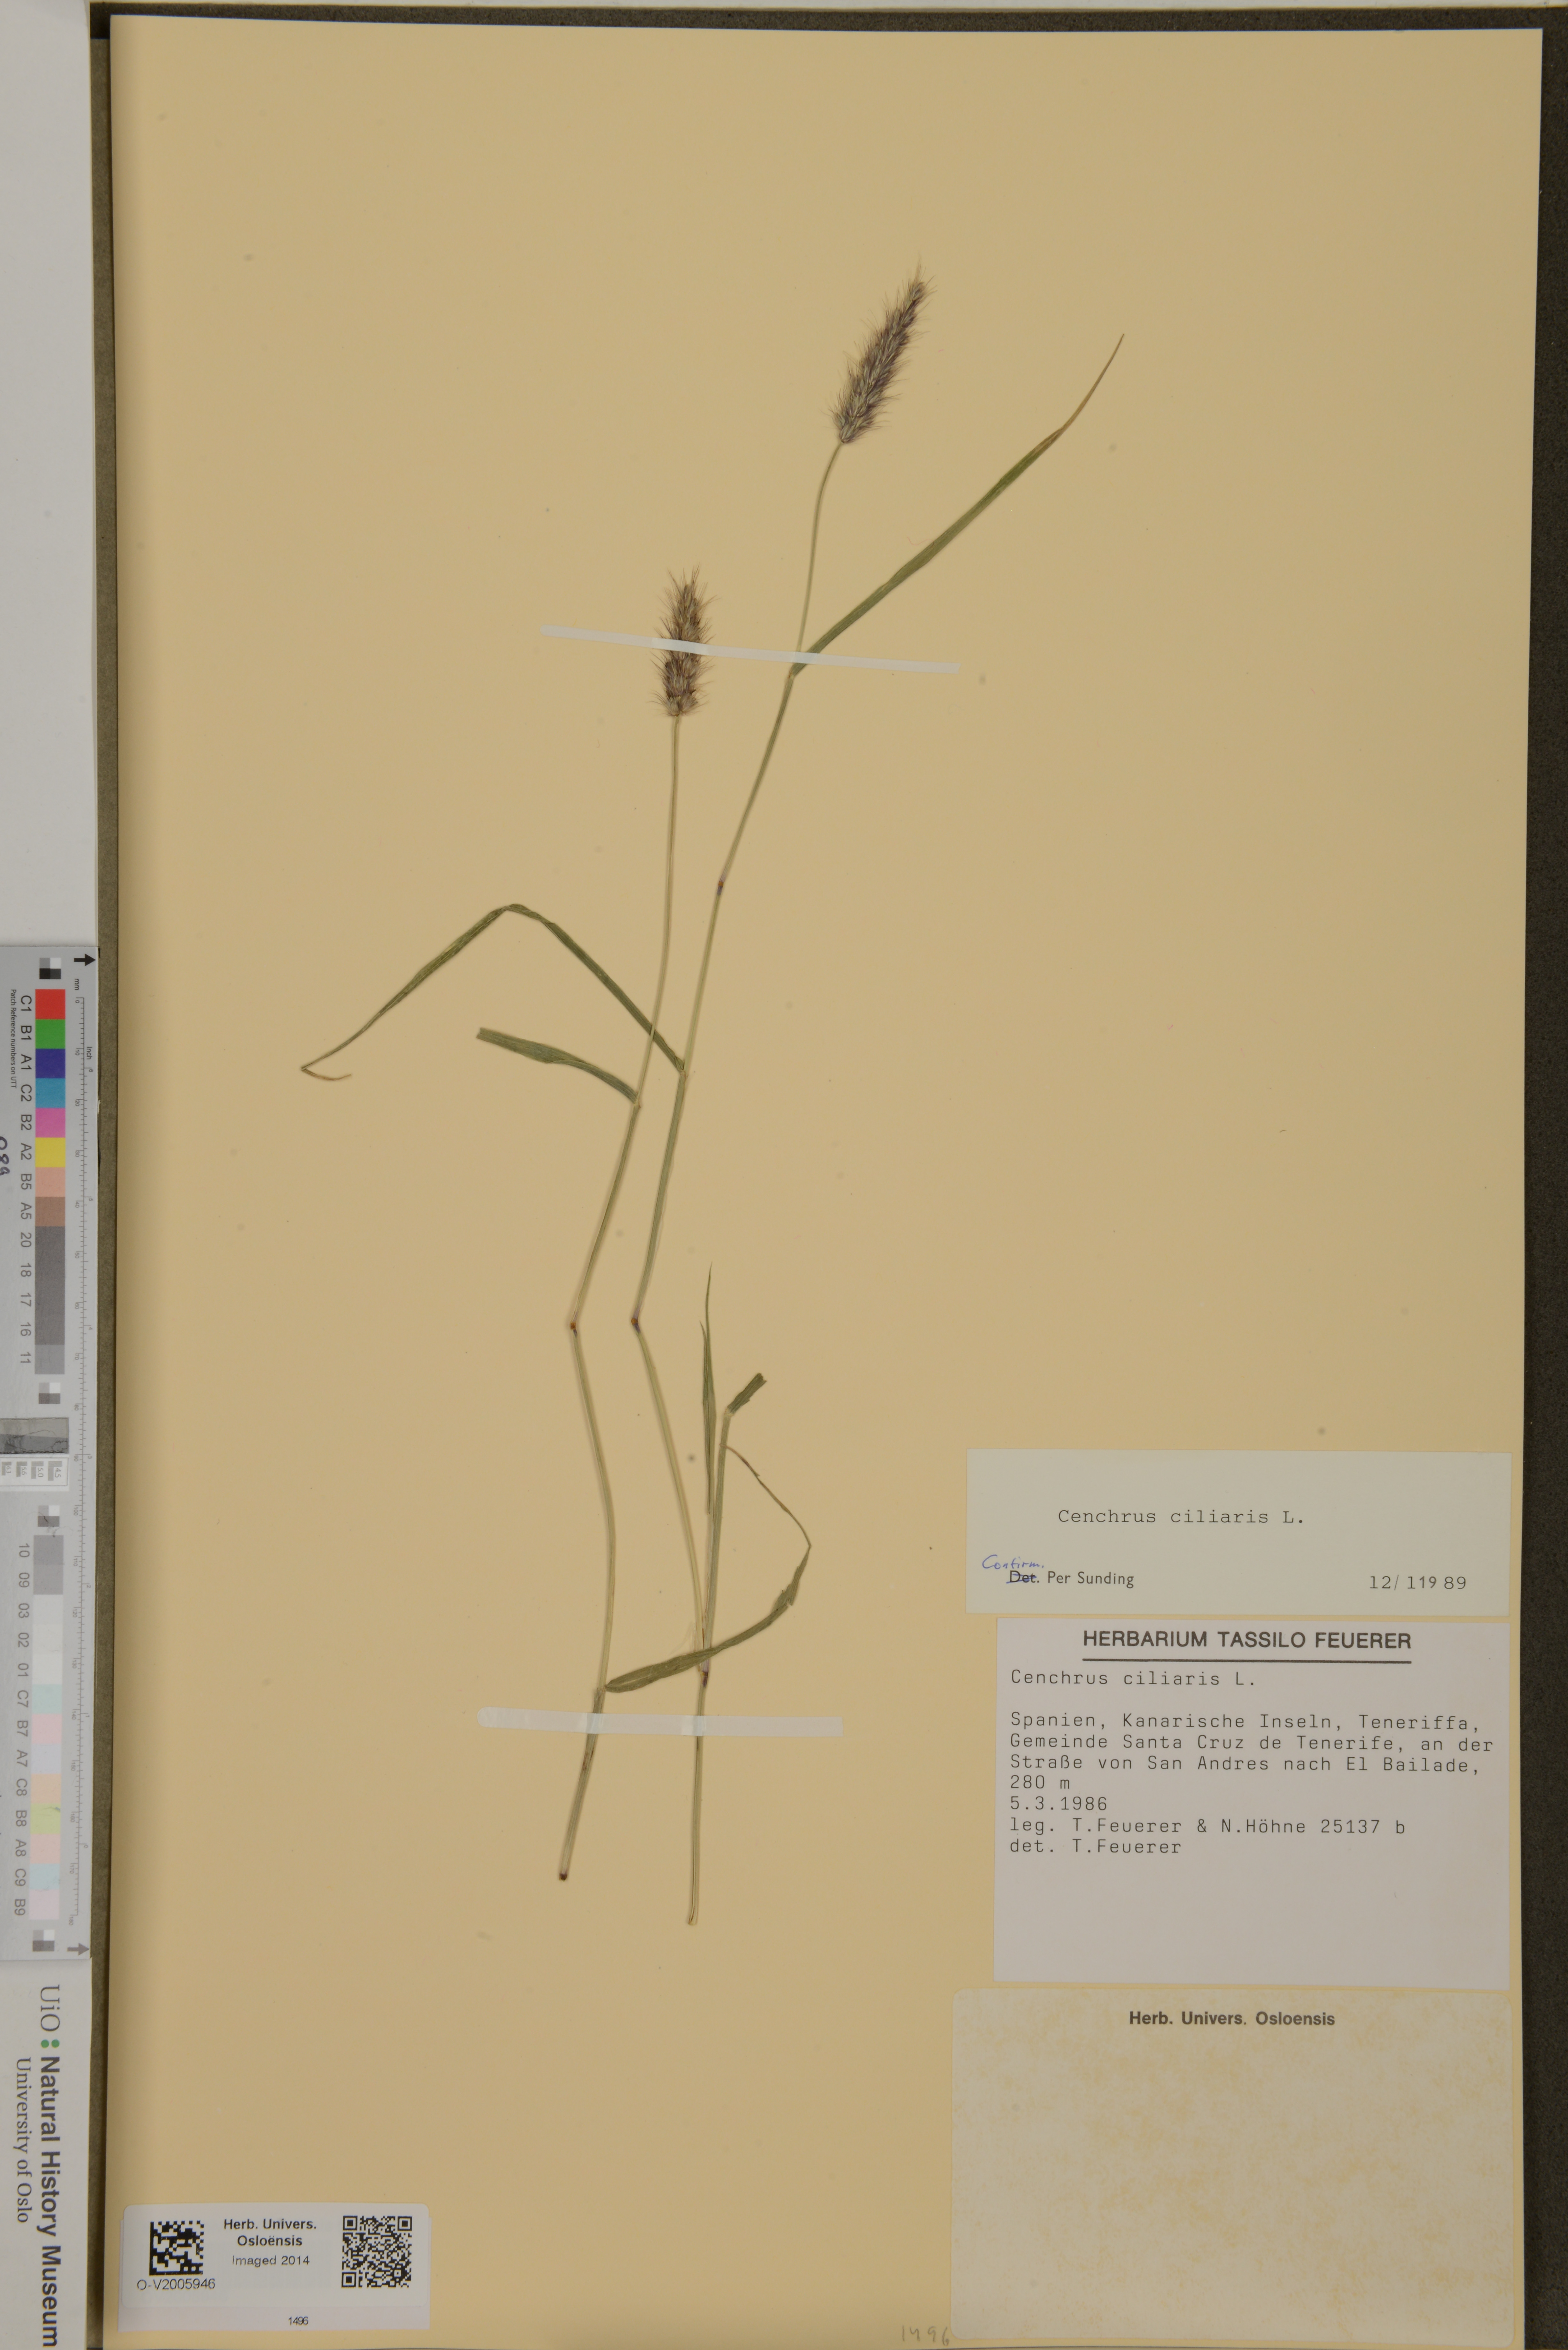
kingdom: Plantae
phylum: Tracheophyta
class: Liliopsida
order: Poales
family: Poaceae
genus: Cenchrus
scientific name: Cenchrus ciliaris
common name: Buffelgrass
